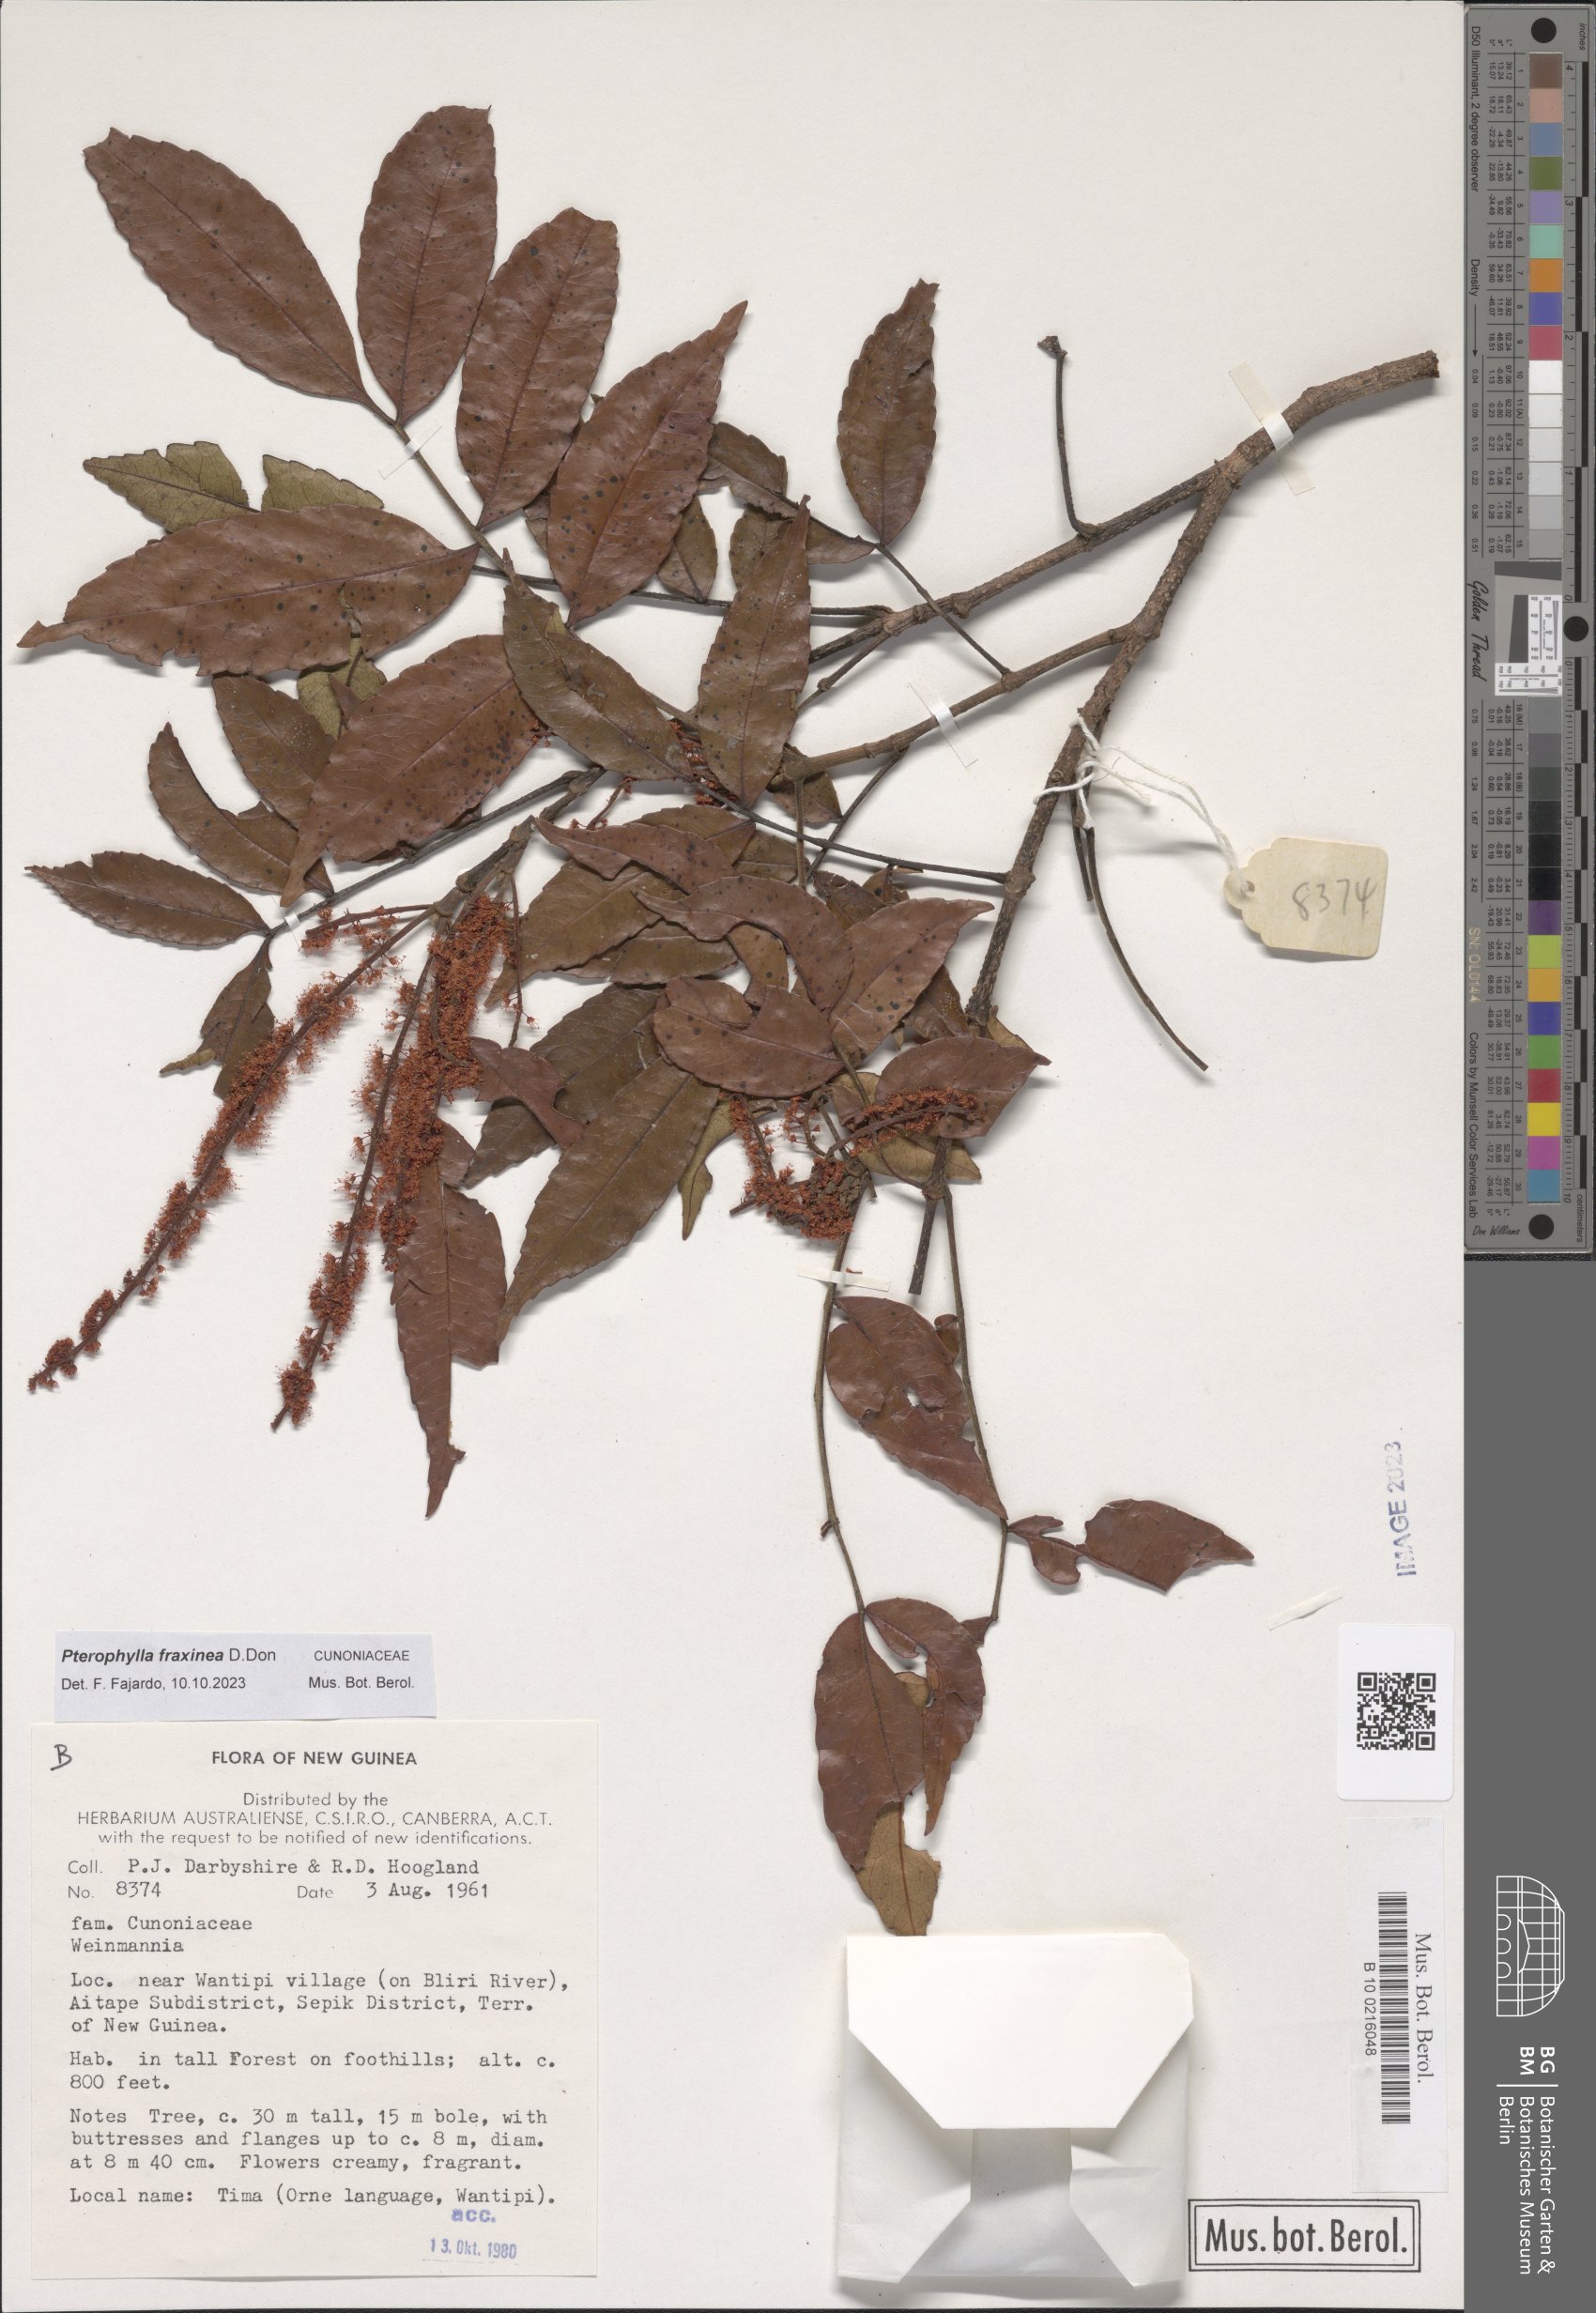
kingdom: Plantae
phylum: Tracheophyta
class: Magnoliopsida
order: Oxalidales
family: Cunoniaceae
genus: Pterophylla
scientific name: Pterophylla fraxinea
